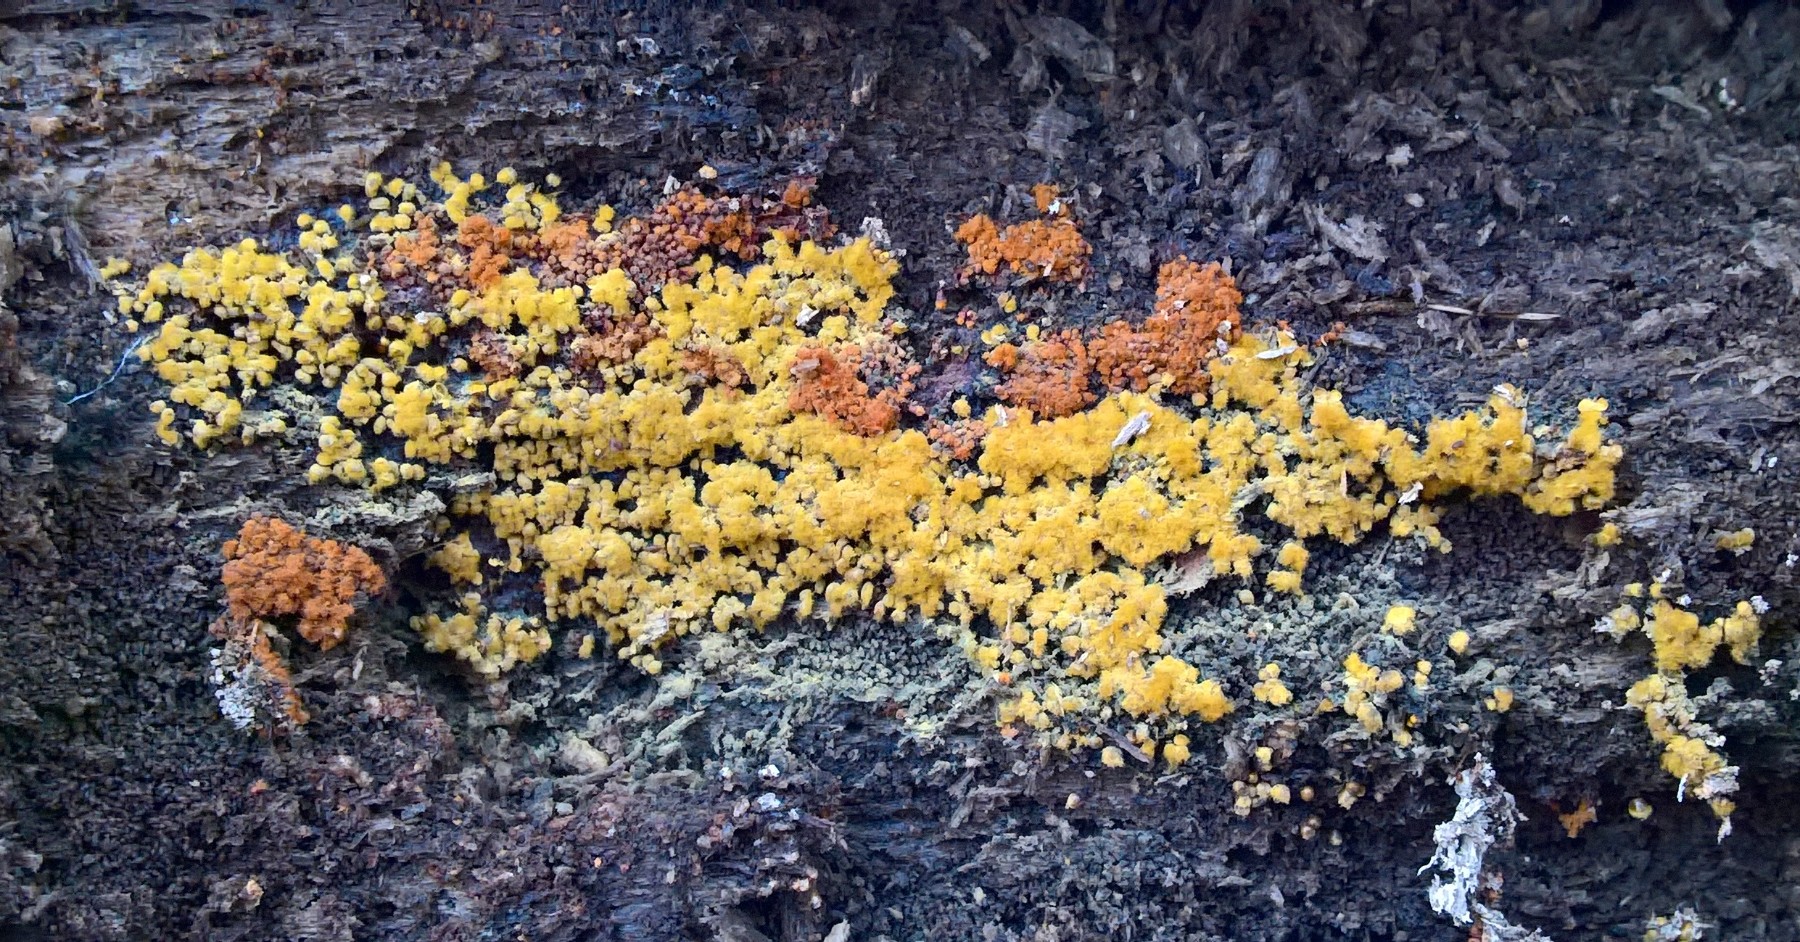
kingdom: Protozoa
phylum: Mycetozoa
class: Myxomycetes
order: Trichiales
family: Trichiaceae
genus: Metatrichia
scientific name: Metatrichia vesparia
